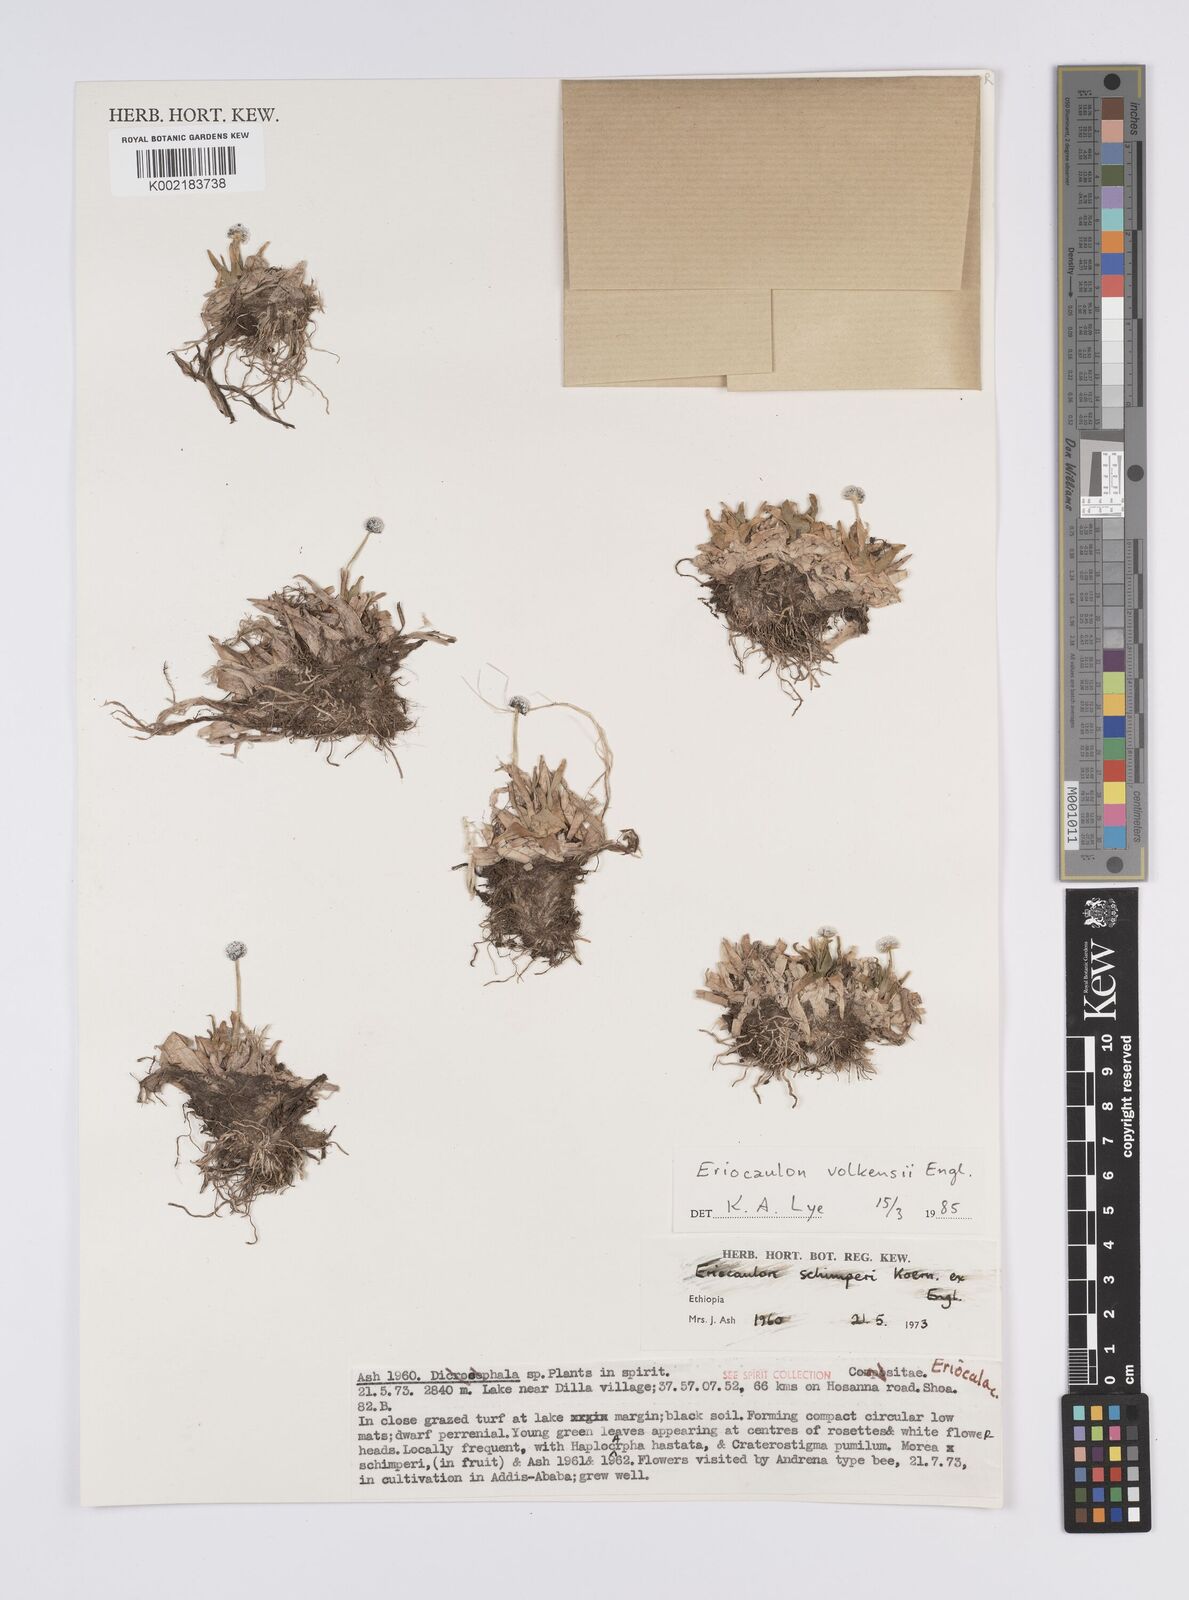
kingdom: Plantae
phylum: Tracheophyta
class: Liliopsida
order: Poales
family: Eriocaulaceae
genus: Eriocaulon
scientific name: Eriocaulon schimperi
